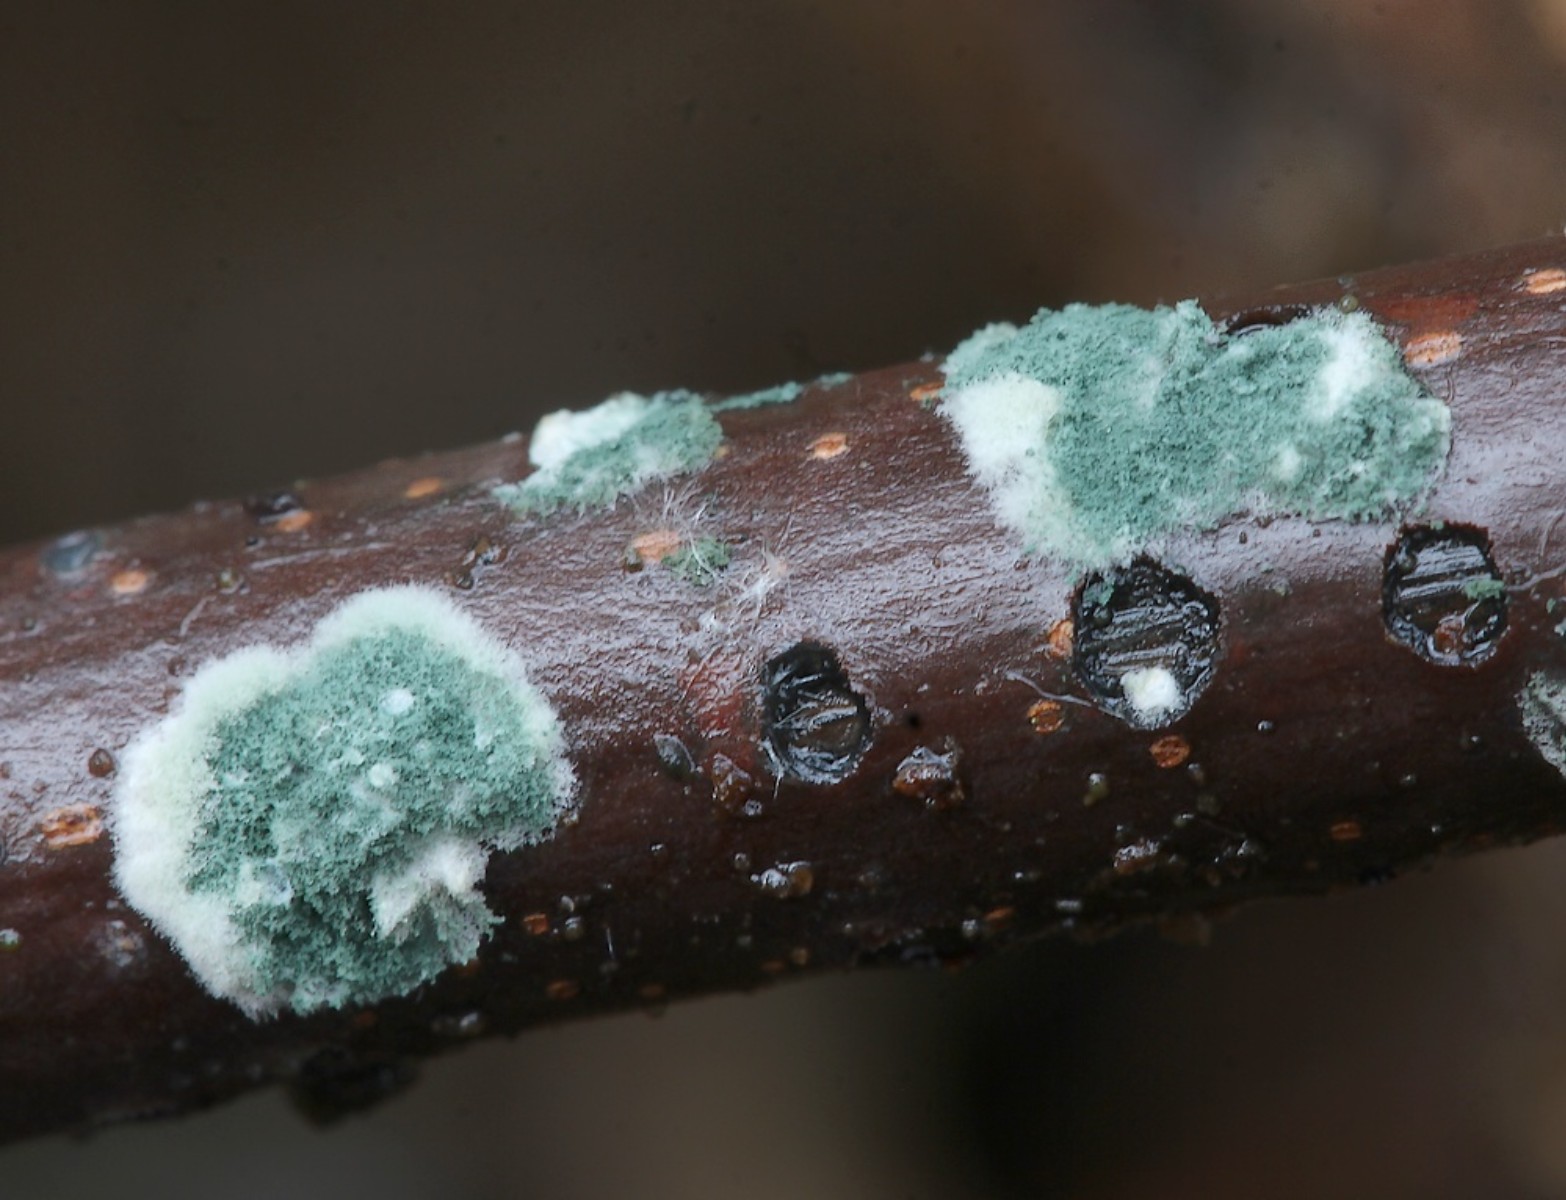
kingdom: Fungi
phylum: Ascomycota
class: Sordariomycetes
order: Hypocreales
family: Hypocreaceae
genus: Trichoderma
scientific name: Trichoderma
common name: kødkerne
